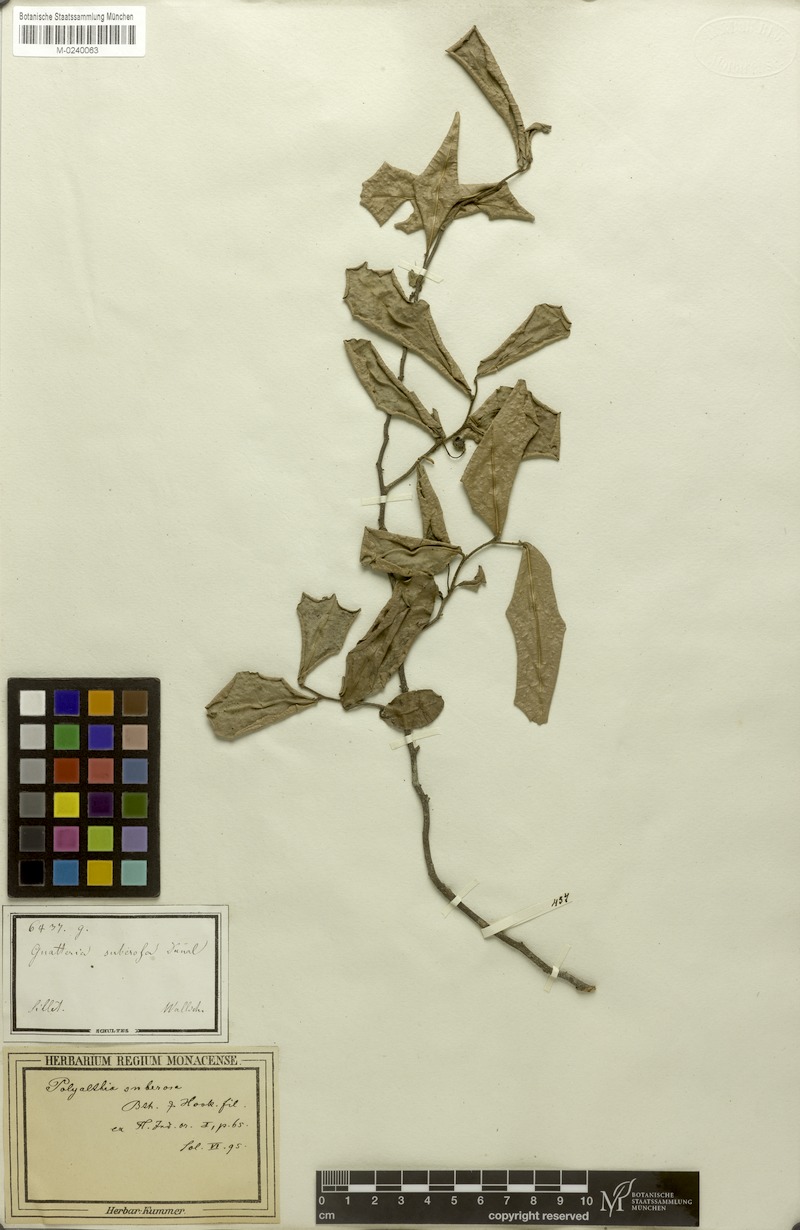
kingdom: Plantae
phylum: Tracheophyta
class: Magnoliopsida
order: Magnoliales
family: Annonaceae
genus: Polyalthia
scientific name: Polyalthia suberosa
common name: Polyalthia plant
